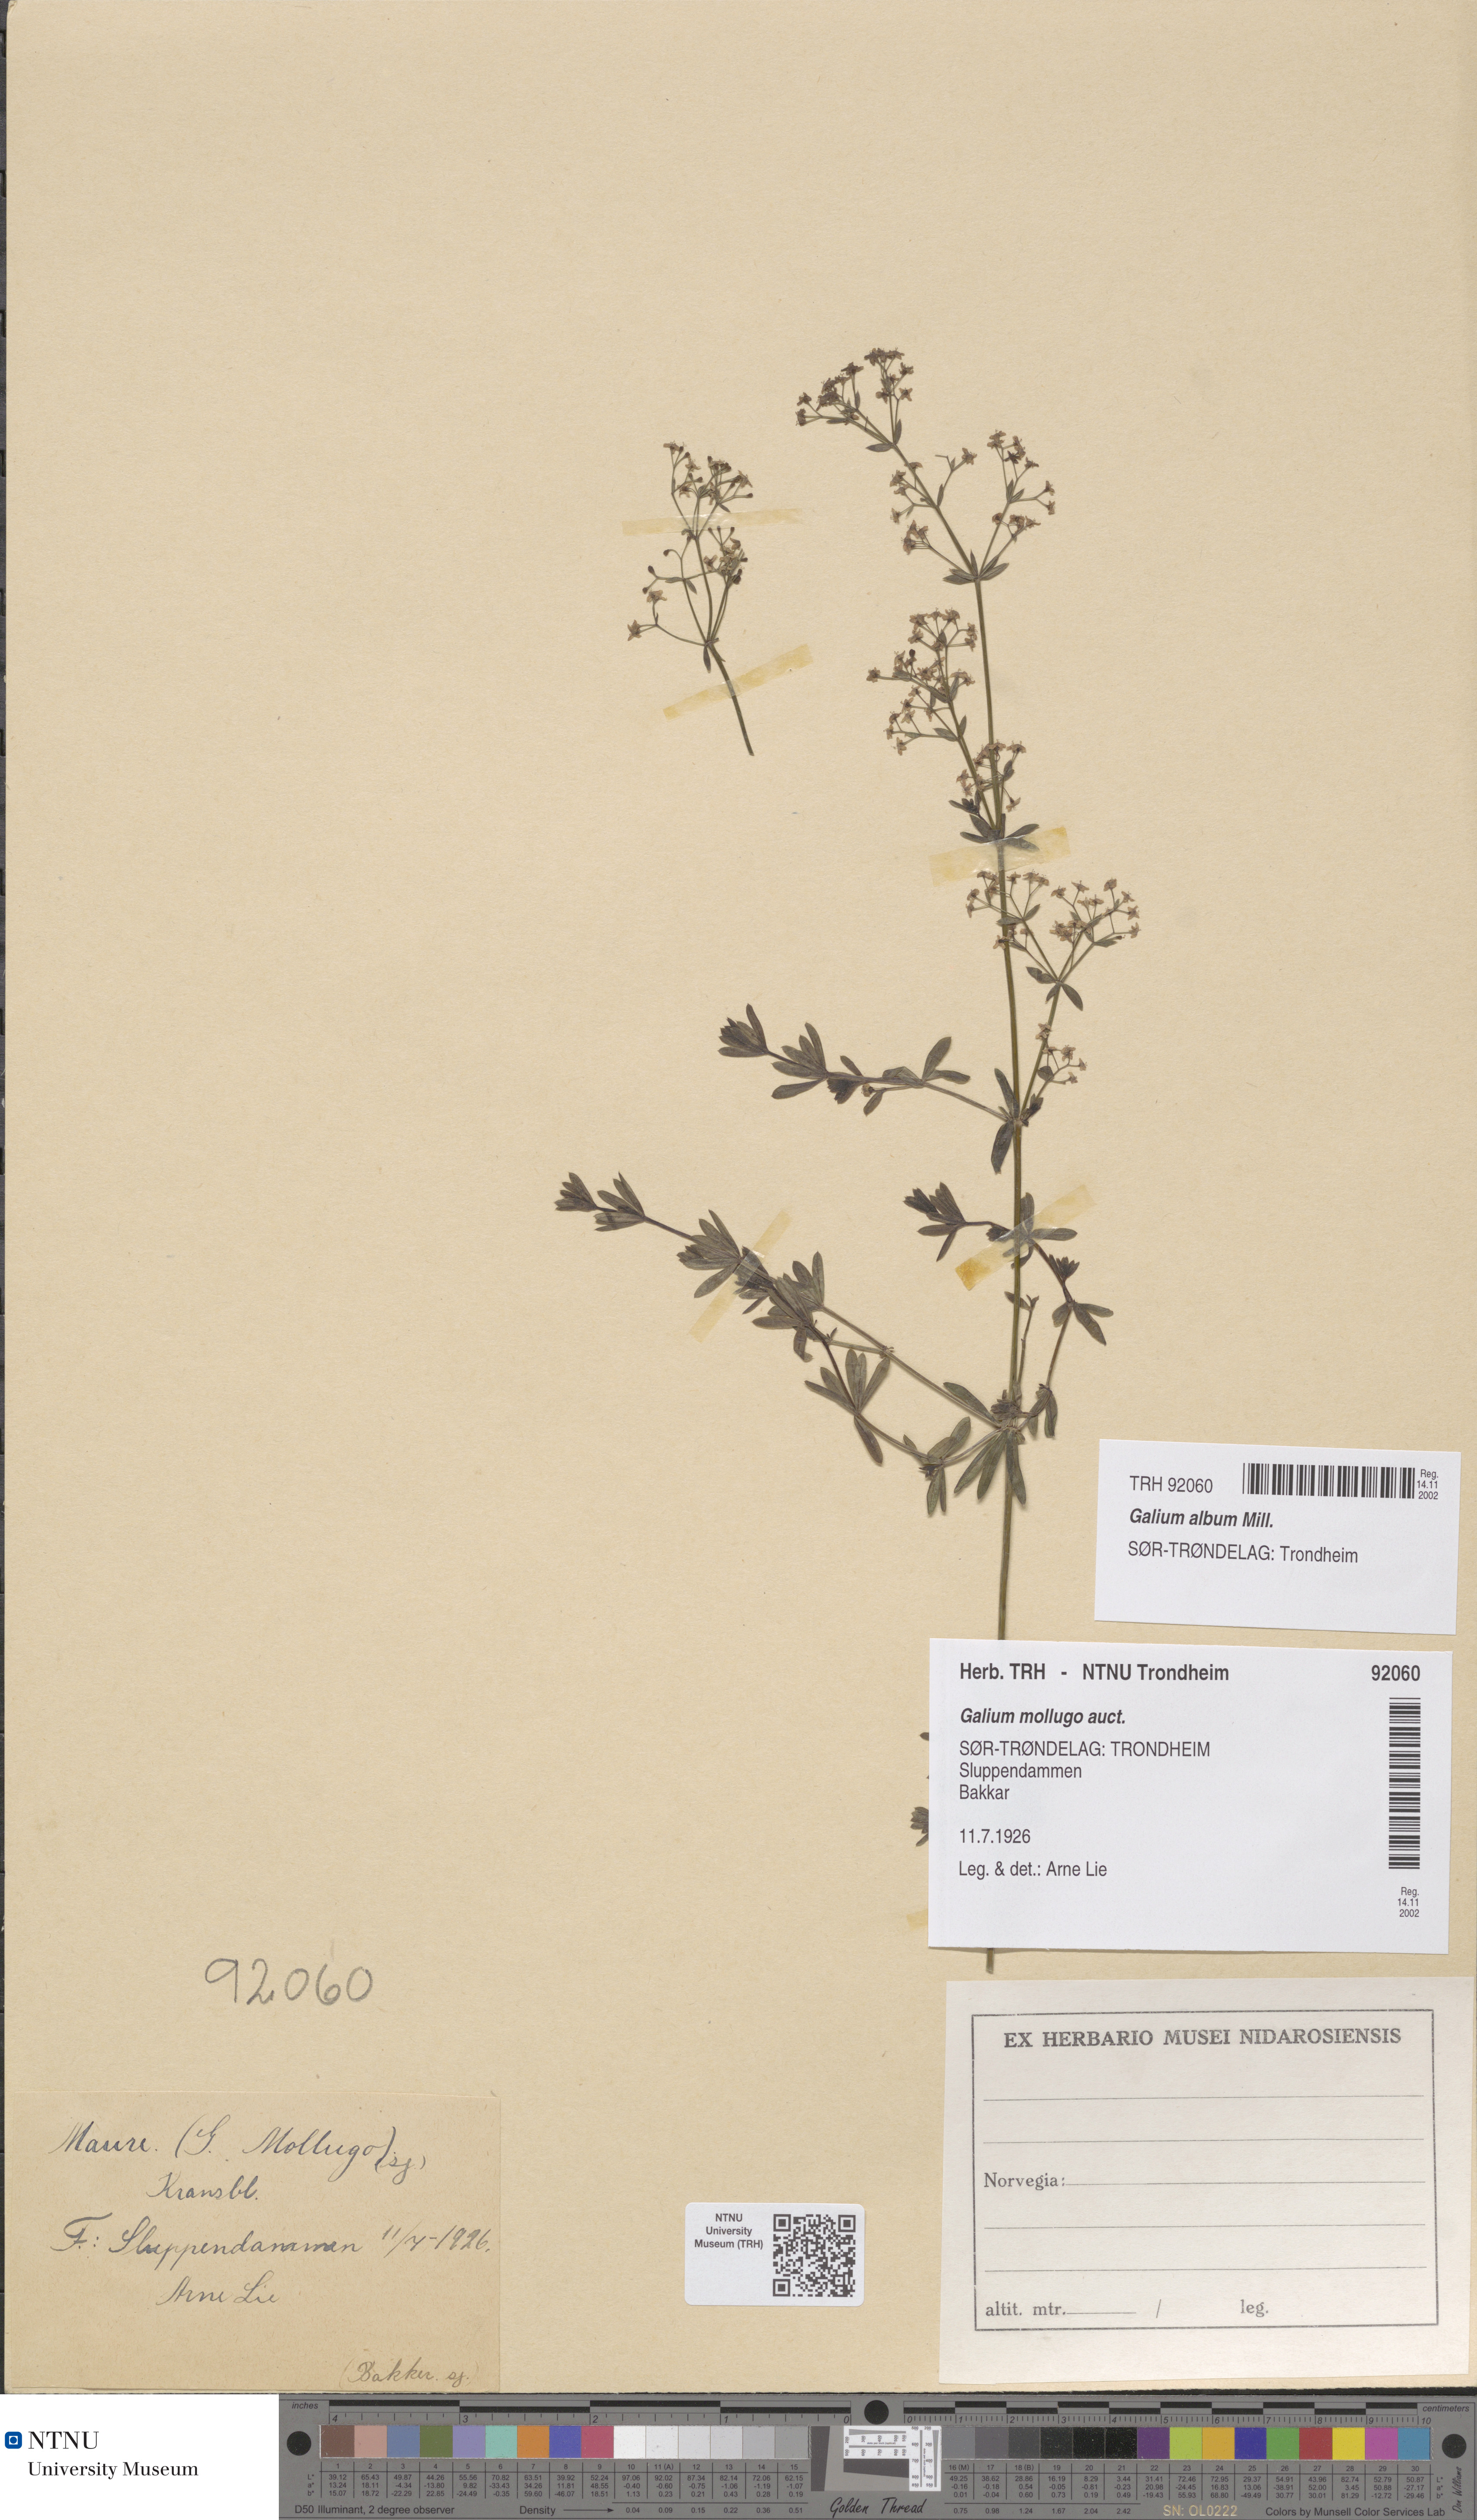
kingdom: Plantae
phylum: Tracheophyta
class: Magnoliopsida
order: Gentianales
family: Rubiaceae
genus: Galium
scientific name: Galium album
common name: White bedstraw
